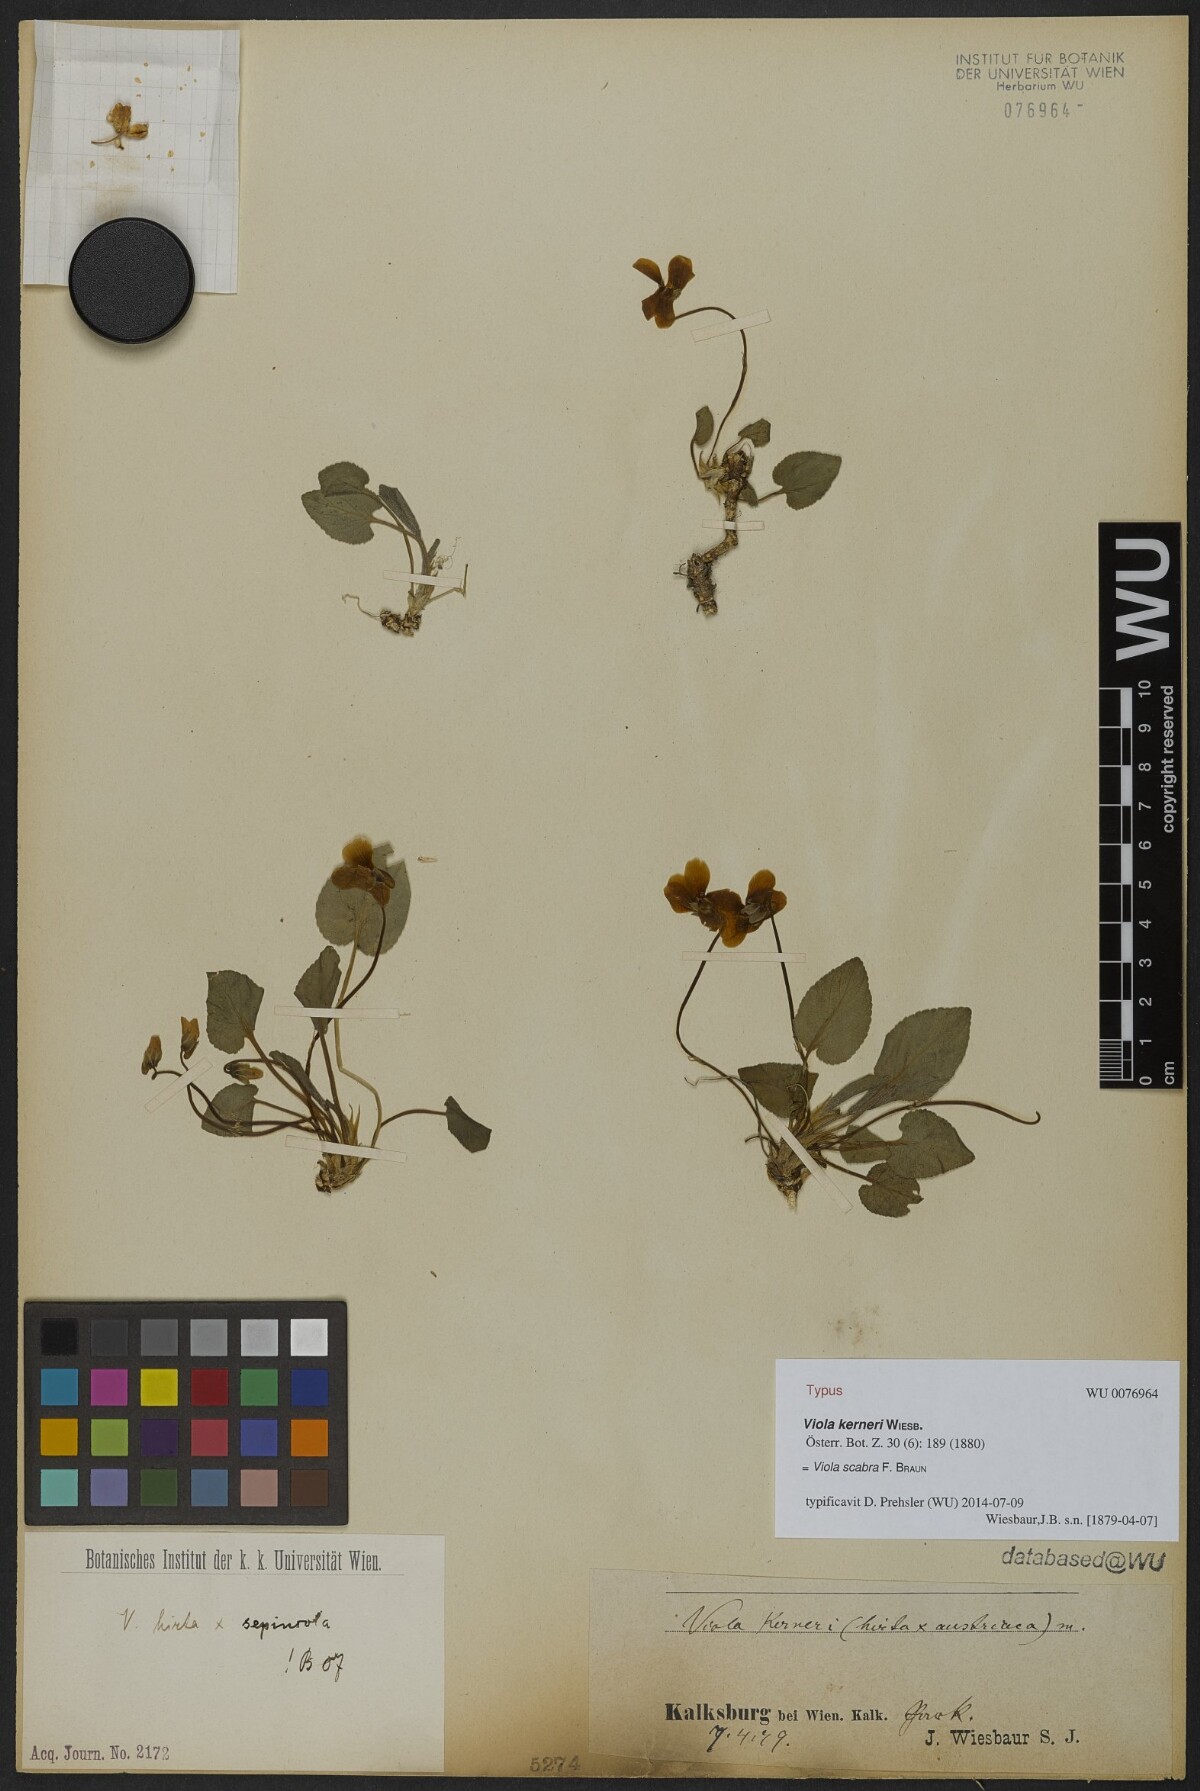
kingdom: Plantae
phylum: Tracheophyta
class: Magnoliopsida
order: Malpighiales
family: Violaceae
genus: Viola
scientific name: Viola foliosa
